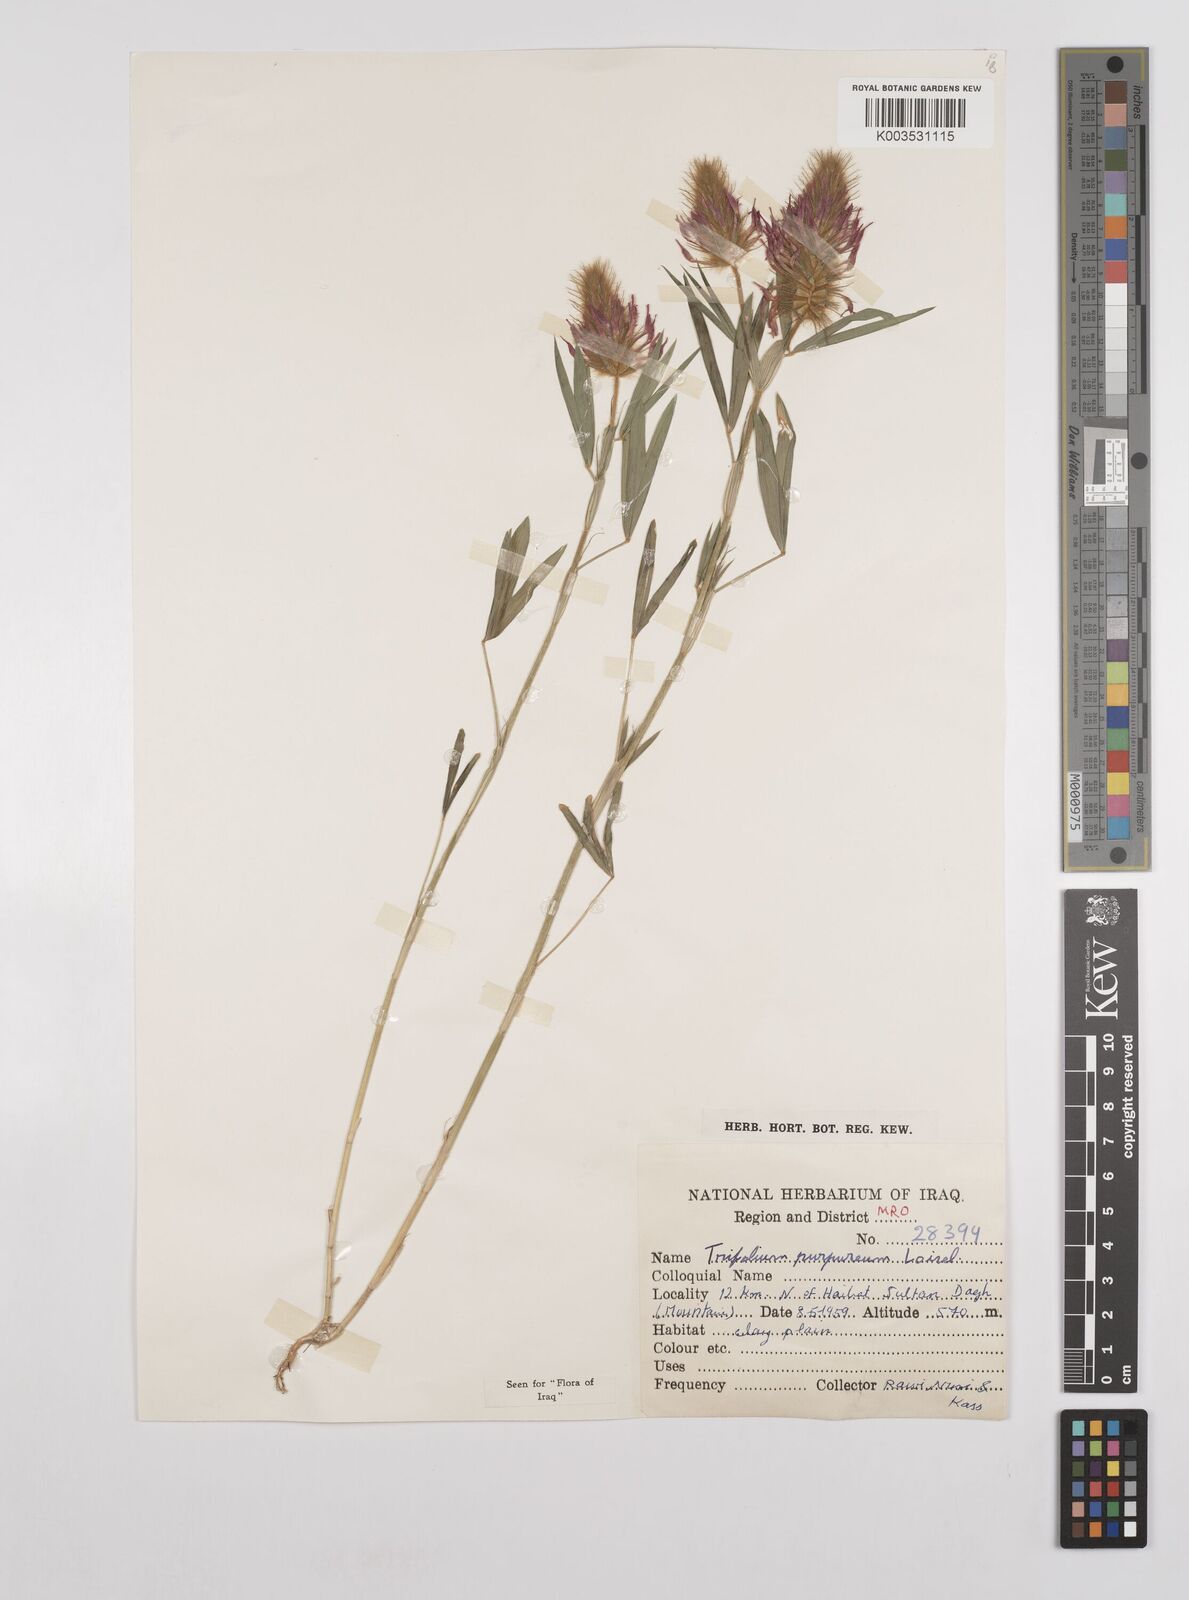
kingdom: Plantae
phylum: Tracheophyta
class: Magnoliopsida
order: Fabales
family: Fabaceae
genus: Trifolium
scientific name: Trifolium purpureum
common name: Purple clover
